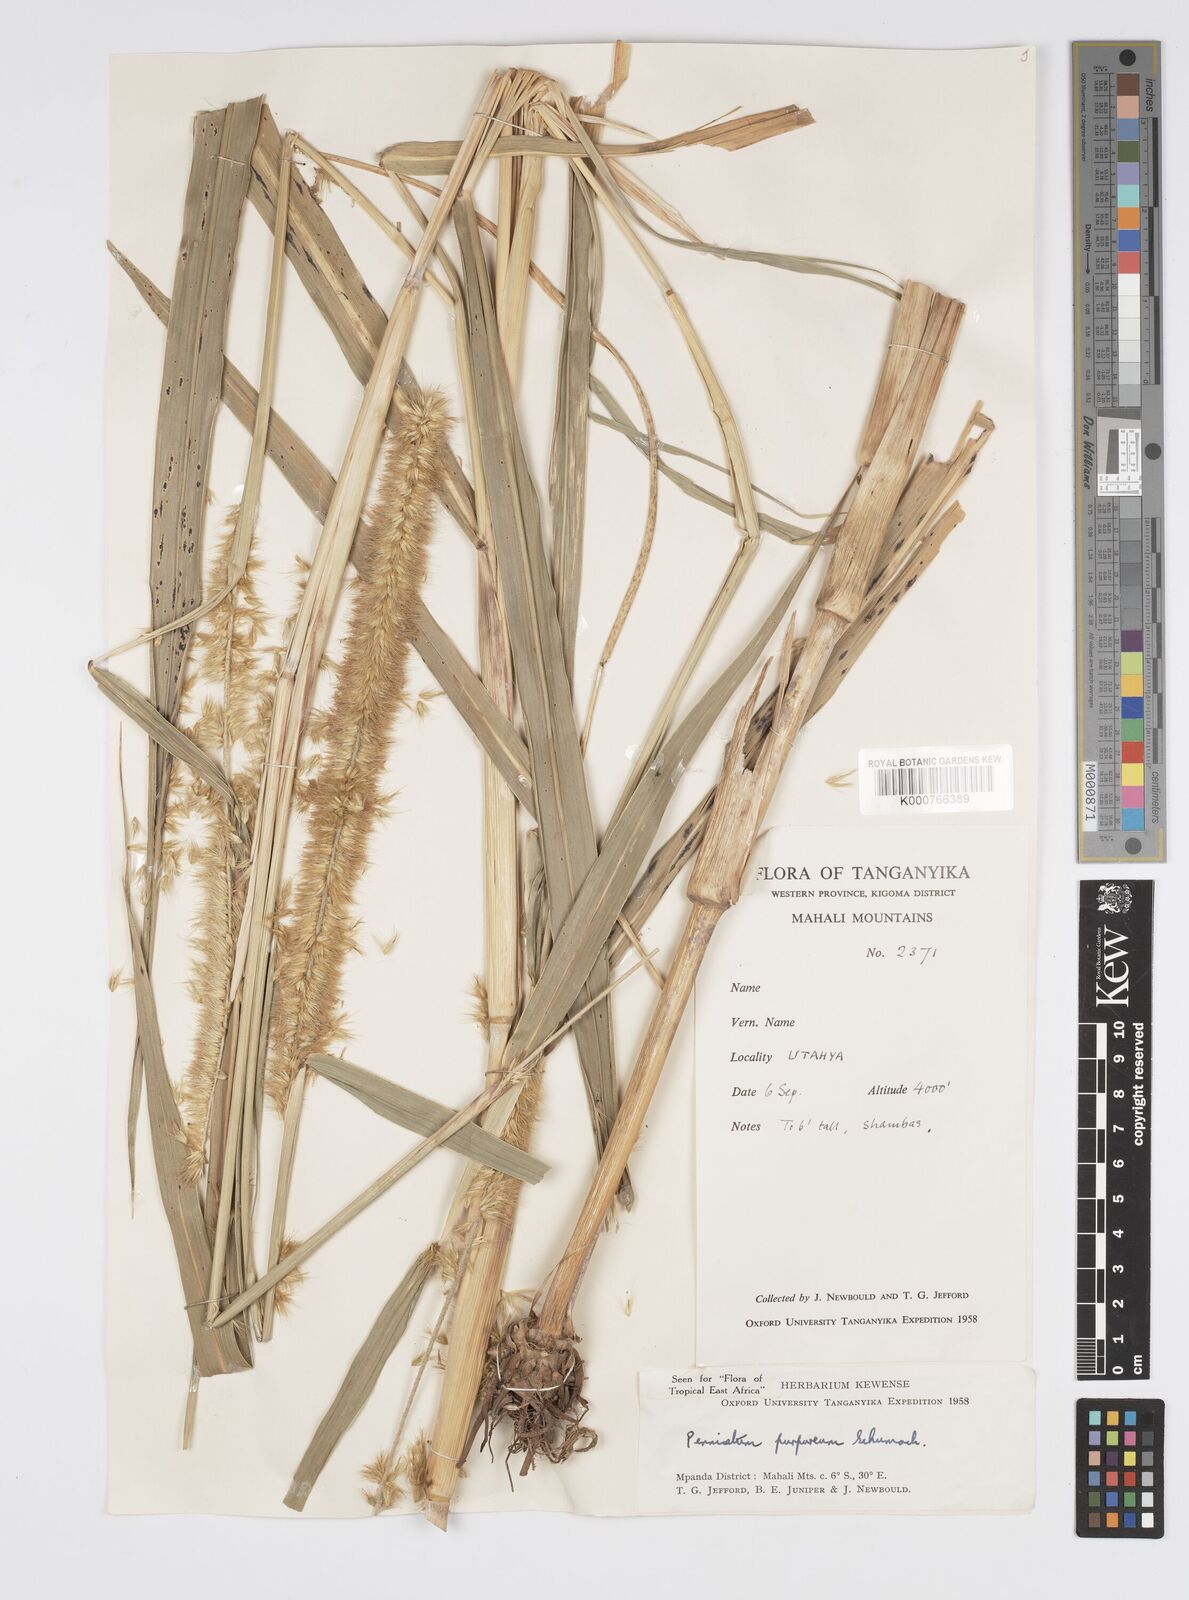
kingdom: Plantae
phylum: Tracheophyta
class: Liliopsida
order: Poales
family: Poaceae
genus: Cenchrus
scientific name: Cenchrus purpureus
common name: Elephant grass
